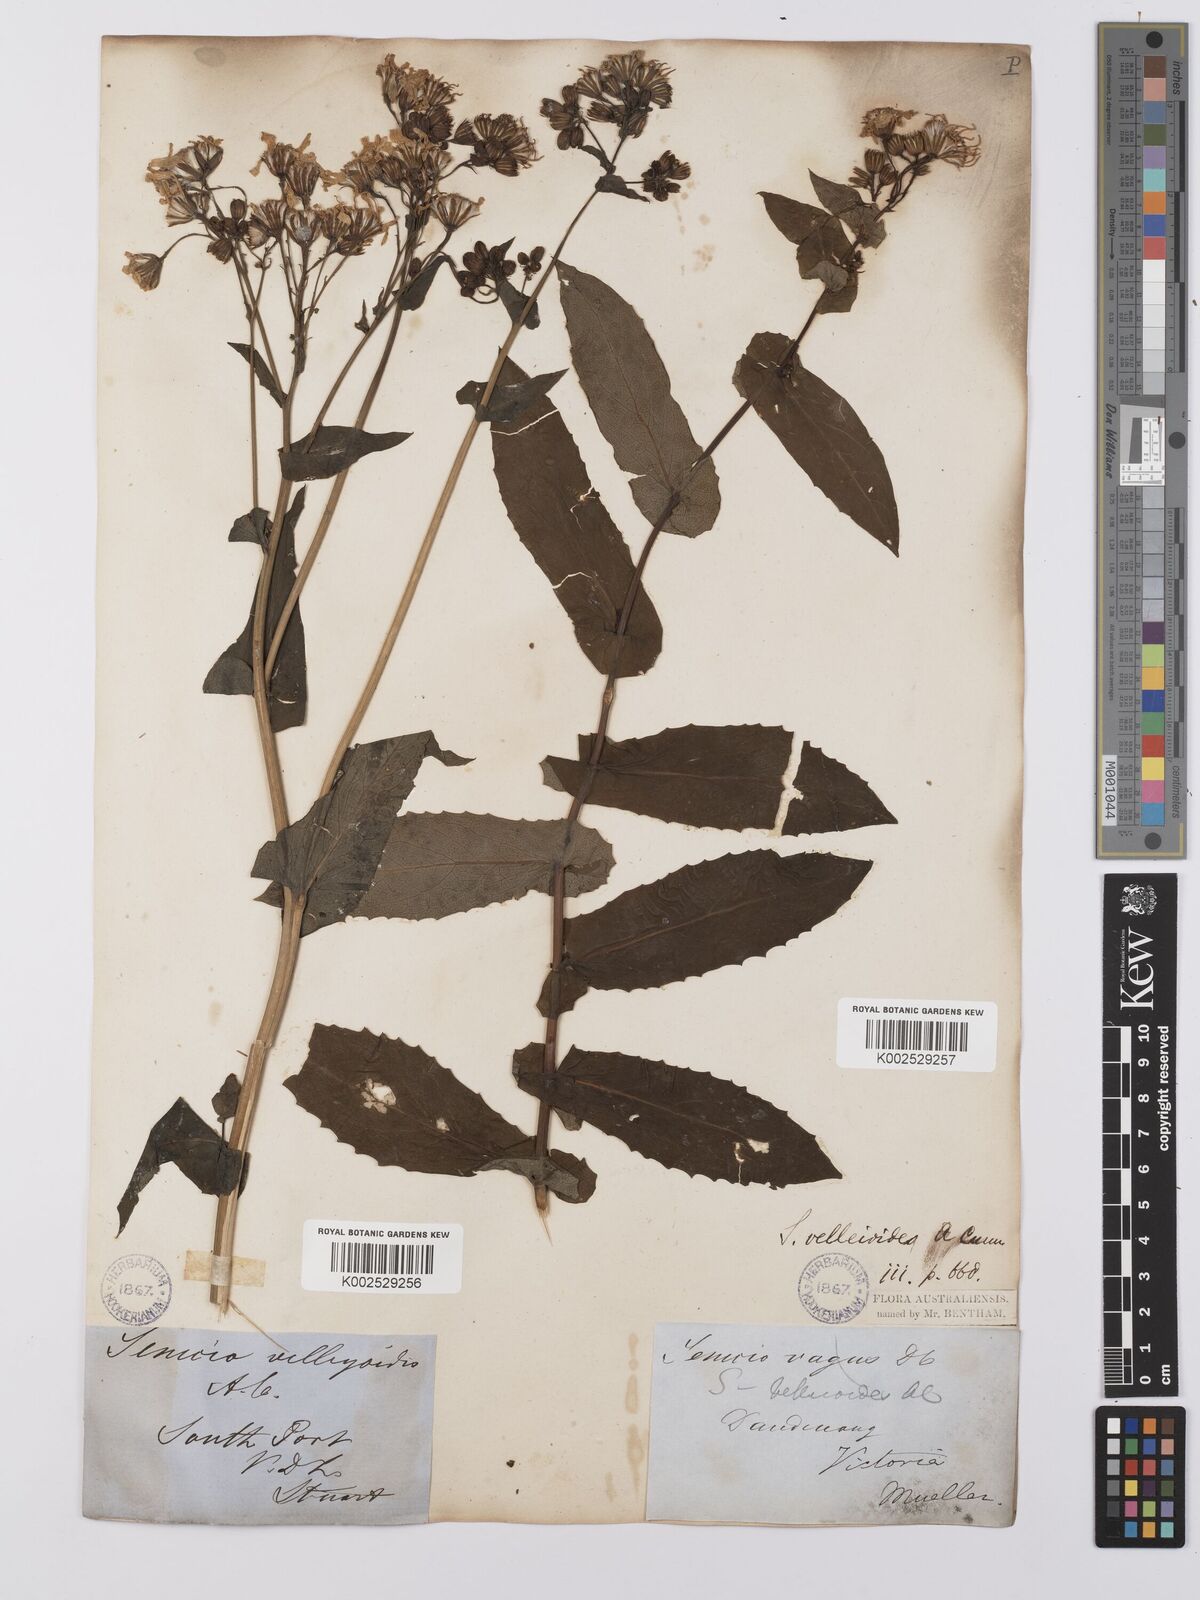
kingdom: Plantae
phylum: Tracheophyta
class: Magnoliopsida
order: Asterales
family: Asteraceae
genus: Lordhowea
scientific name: Lordhowea velleioides
